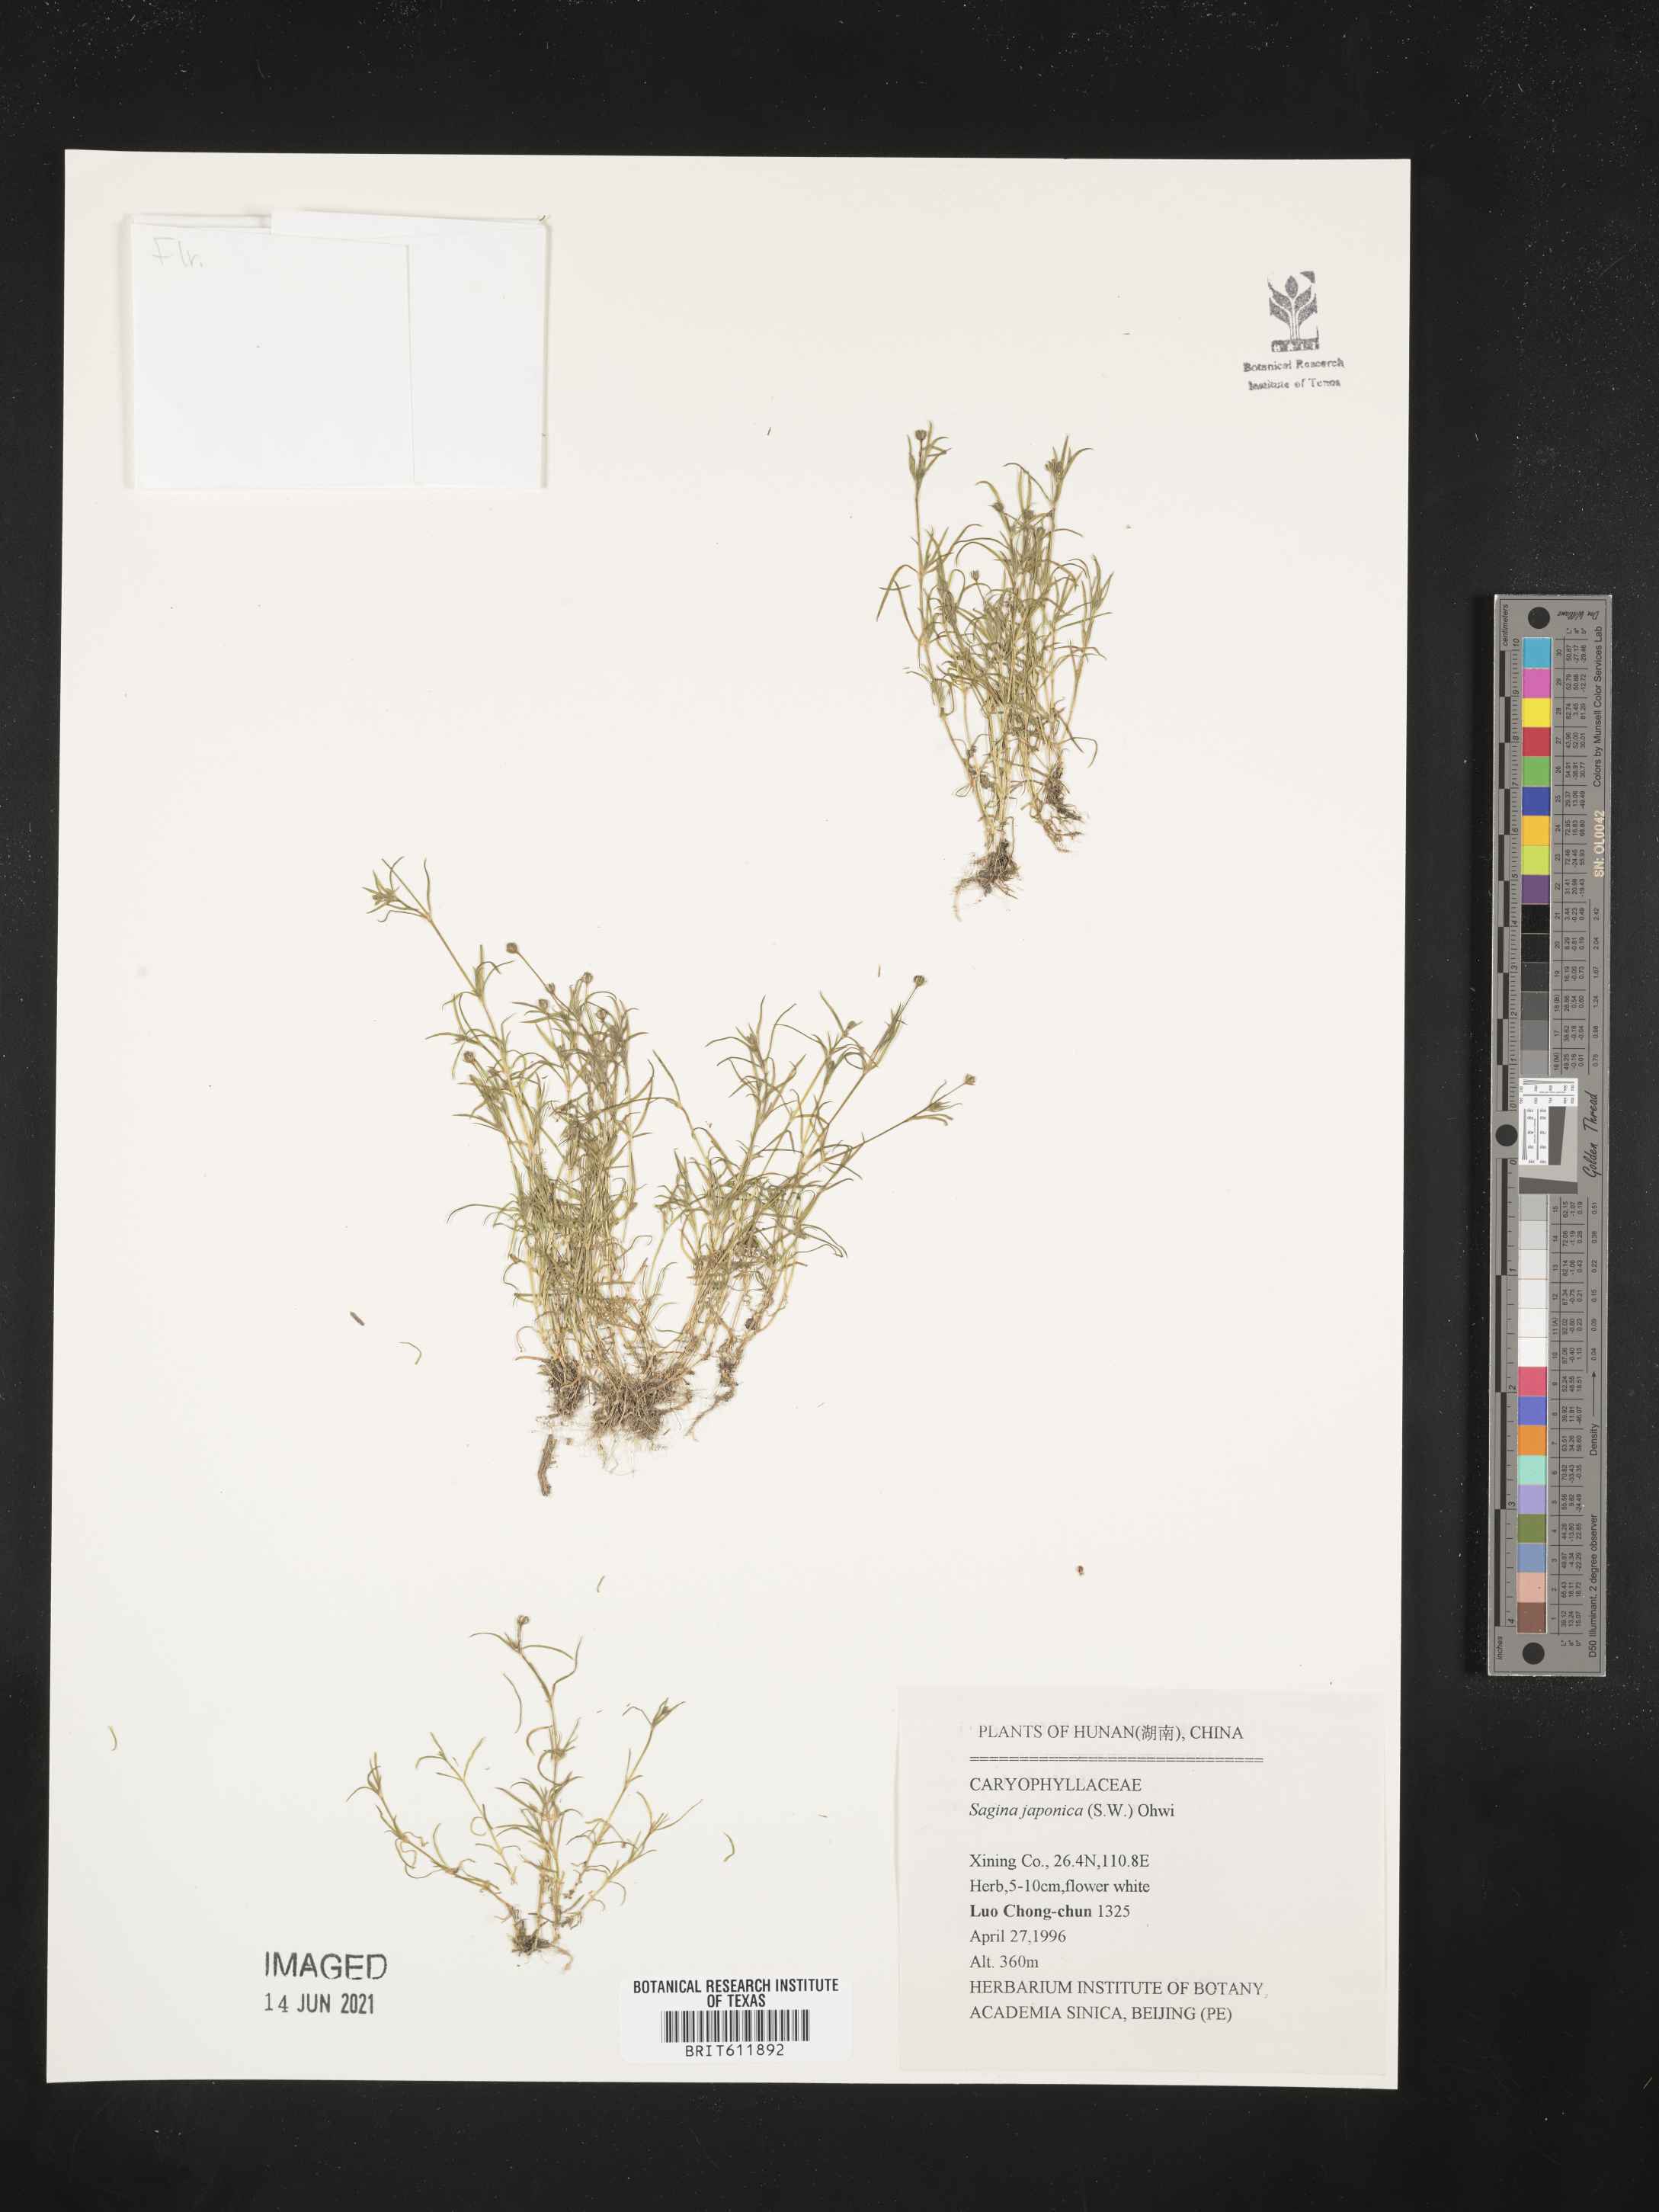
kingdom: Plantae
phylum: Tracheophyta
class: Magnoliopsida
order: Caryophyllales
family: Caryophyllaceae
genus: Sagina
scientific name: Sagina japonica
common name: Japanese pearlwort
